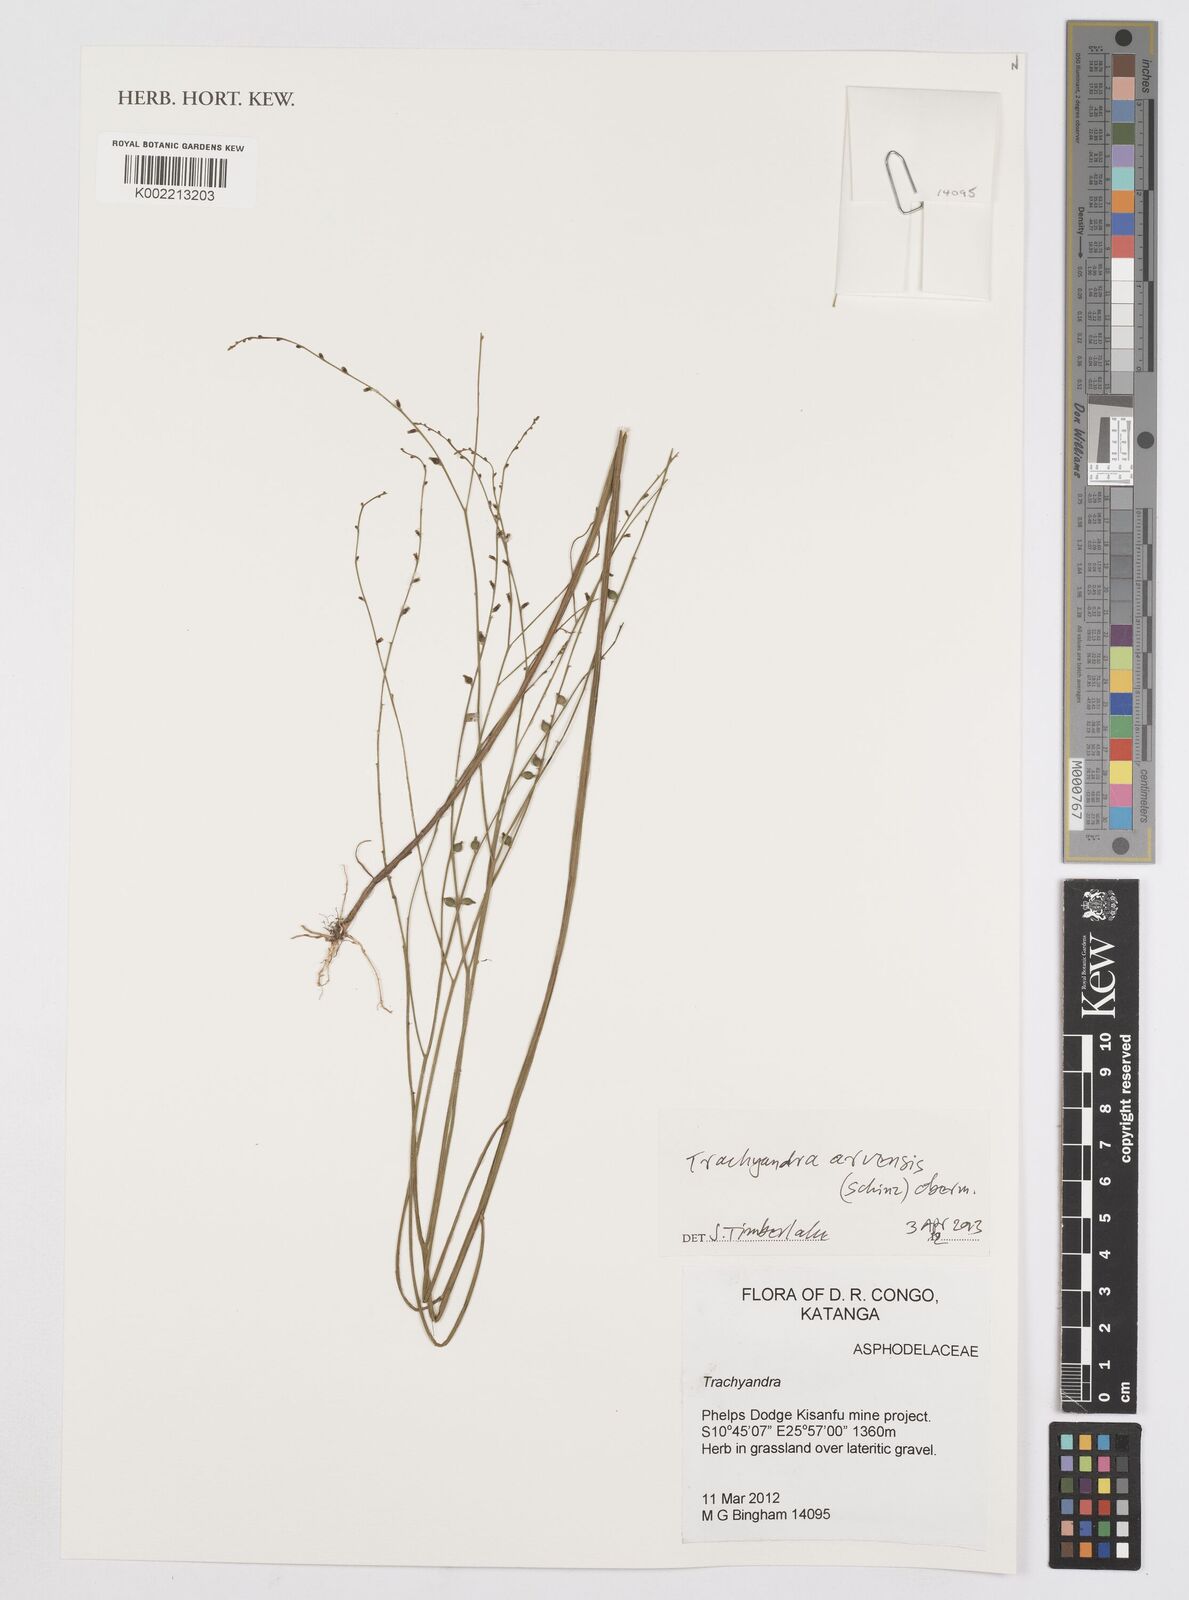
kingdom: Plantae
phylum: Tracheophyta
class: Liliopsida
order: Asparagales
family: Asphodelaceae
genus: Trachyandra
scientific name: Trachyandra arvensis
